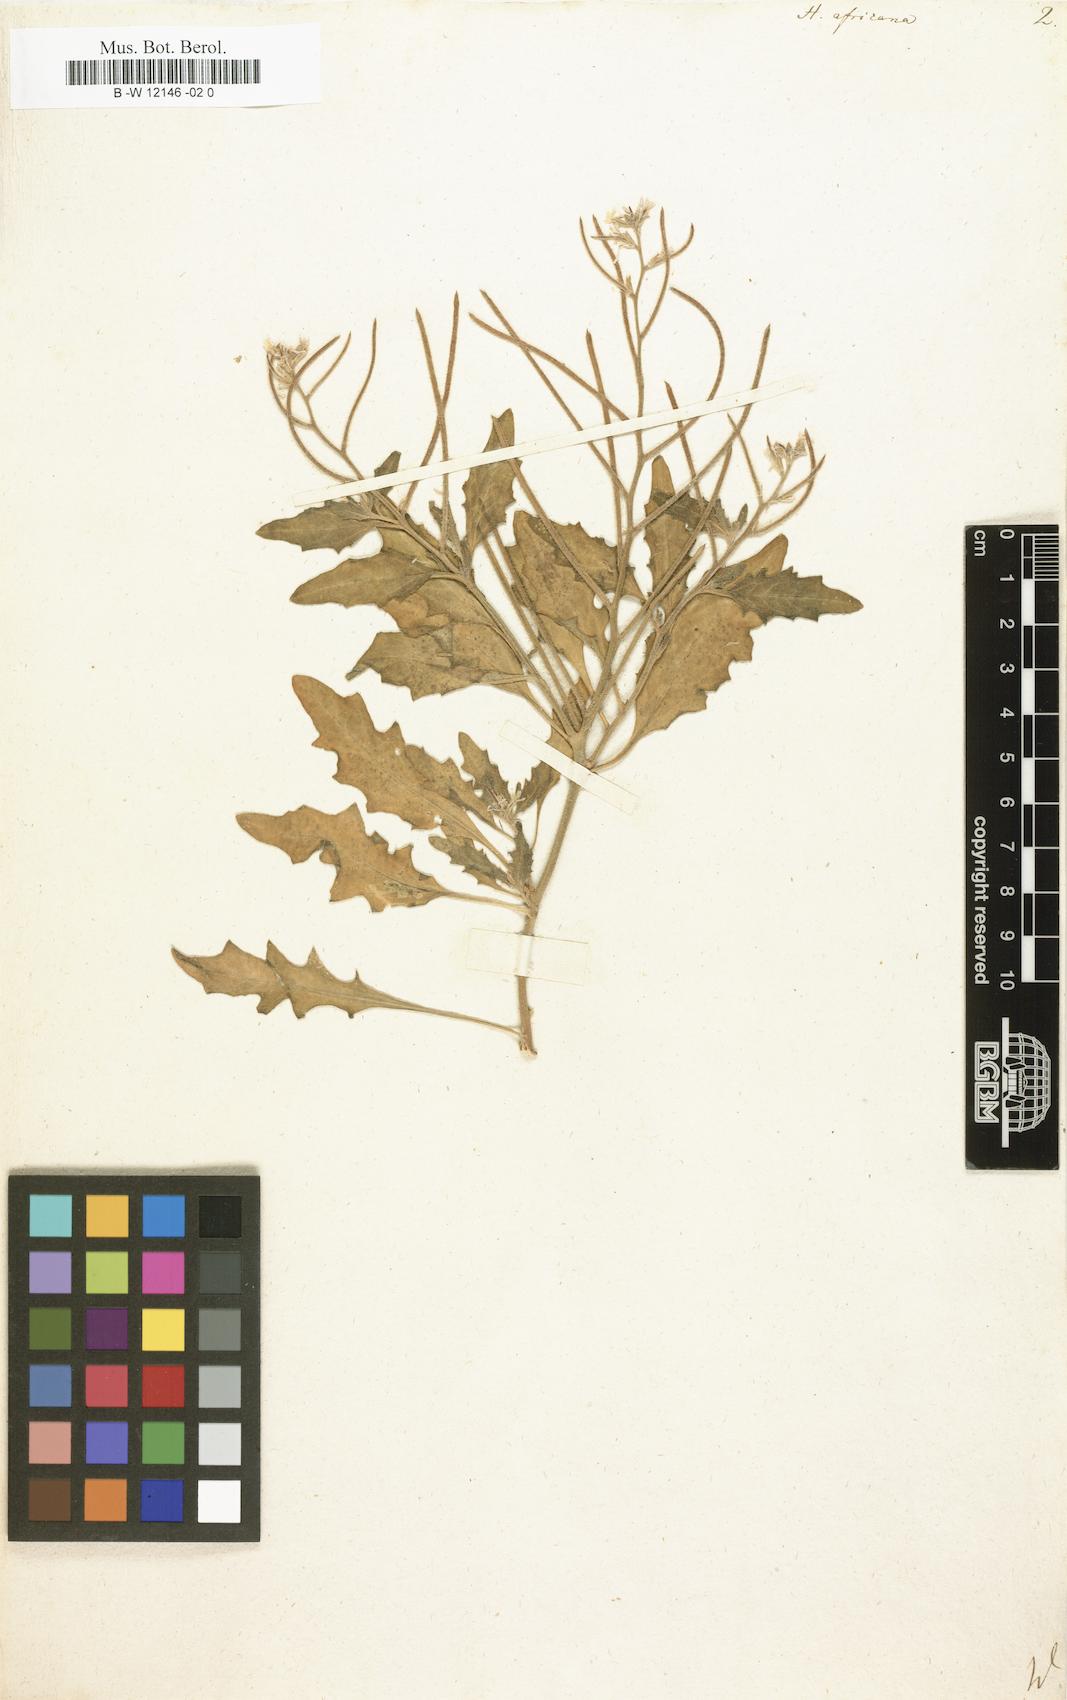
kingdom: Plantae
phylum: Tracheophyta
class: Magnoliopsida
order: Brassicales
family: Brassicaceae
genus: Strigosella
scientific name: Strigosella africana
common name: African mustard
